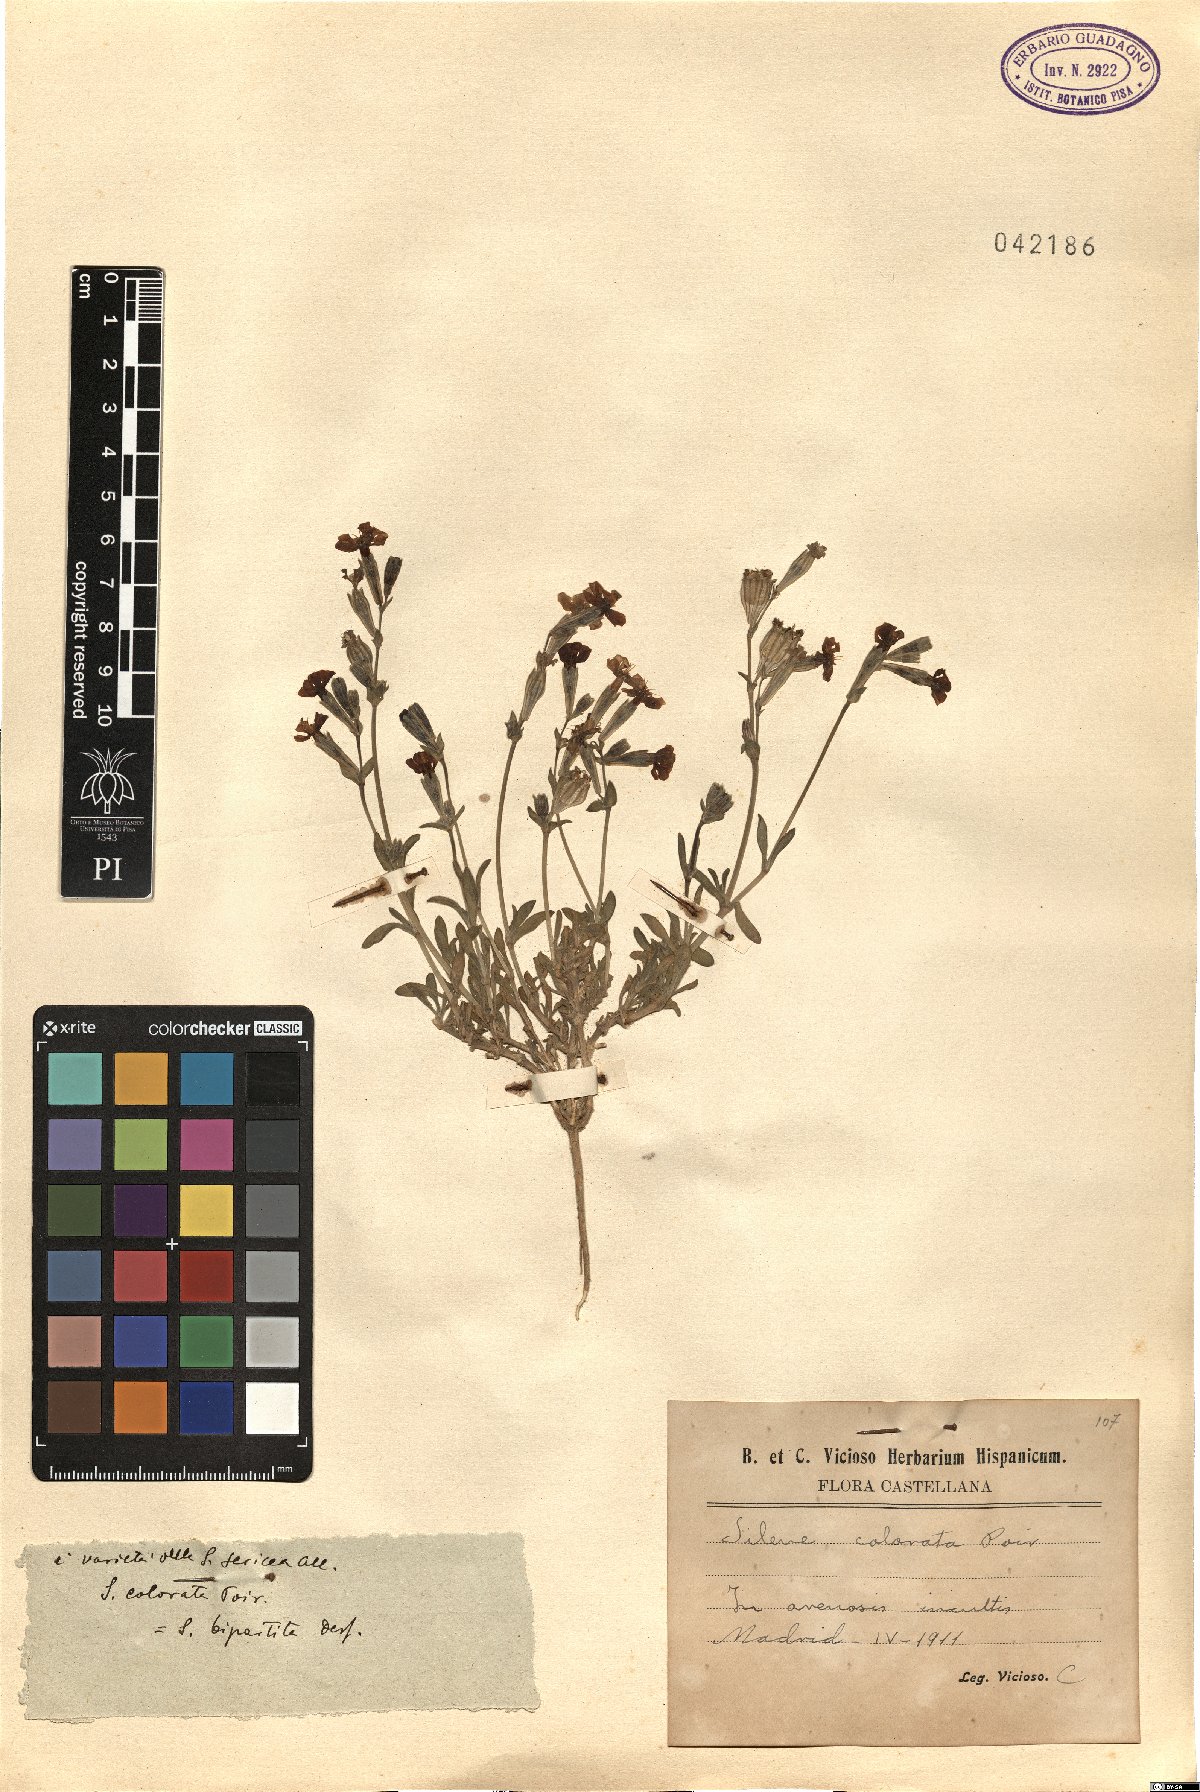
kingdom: Plantae
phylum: Tracheophyta
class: Magnoliopsida
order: Caryophyllales
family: Caryophyllaceae
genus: Silene
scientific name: Silene colorata
